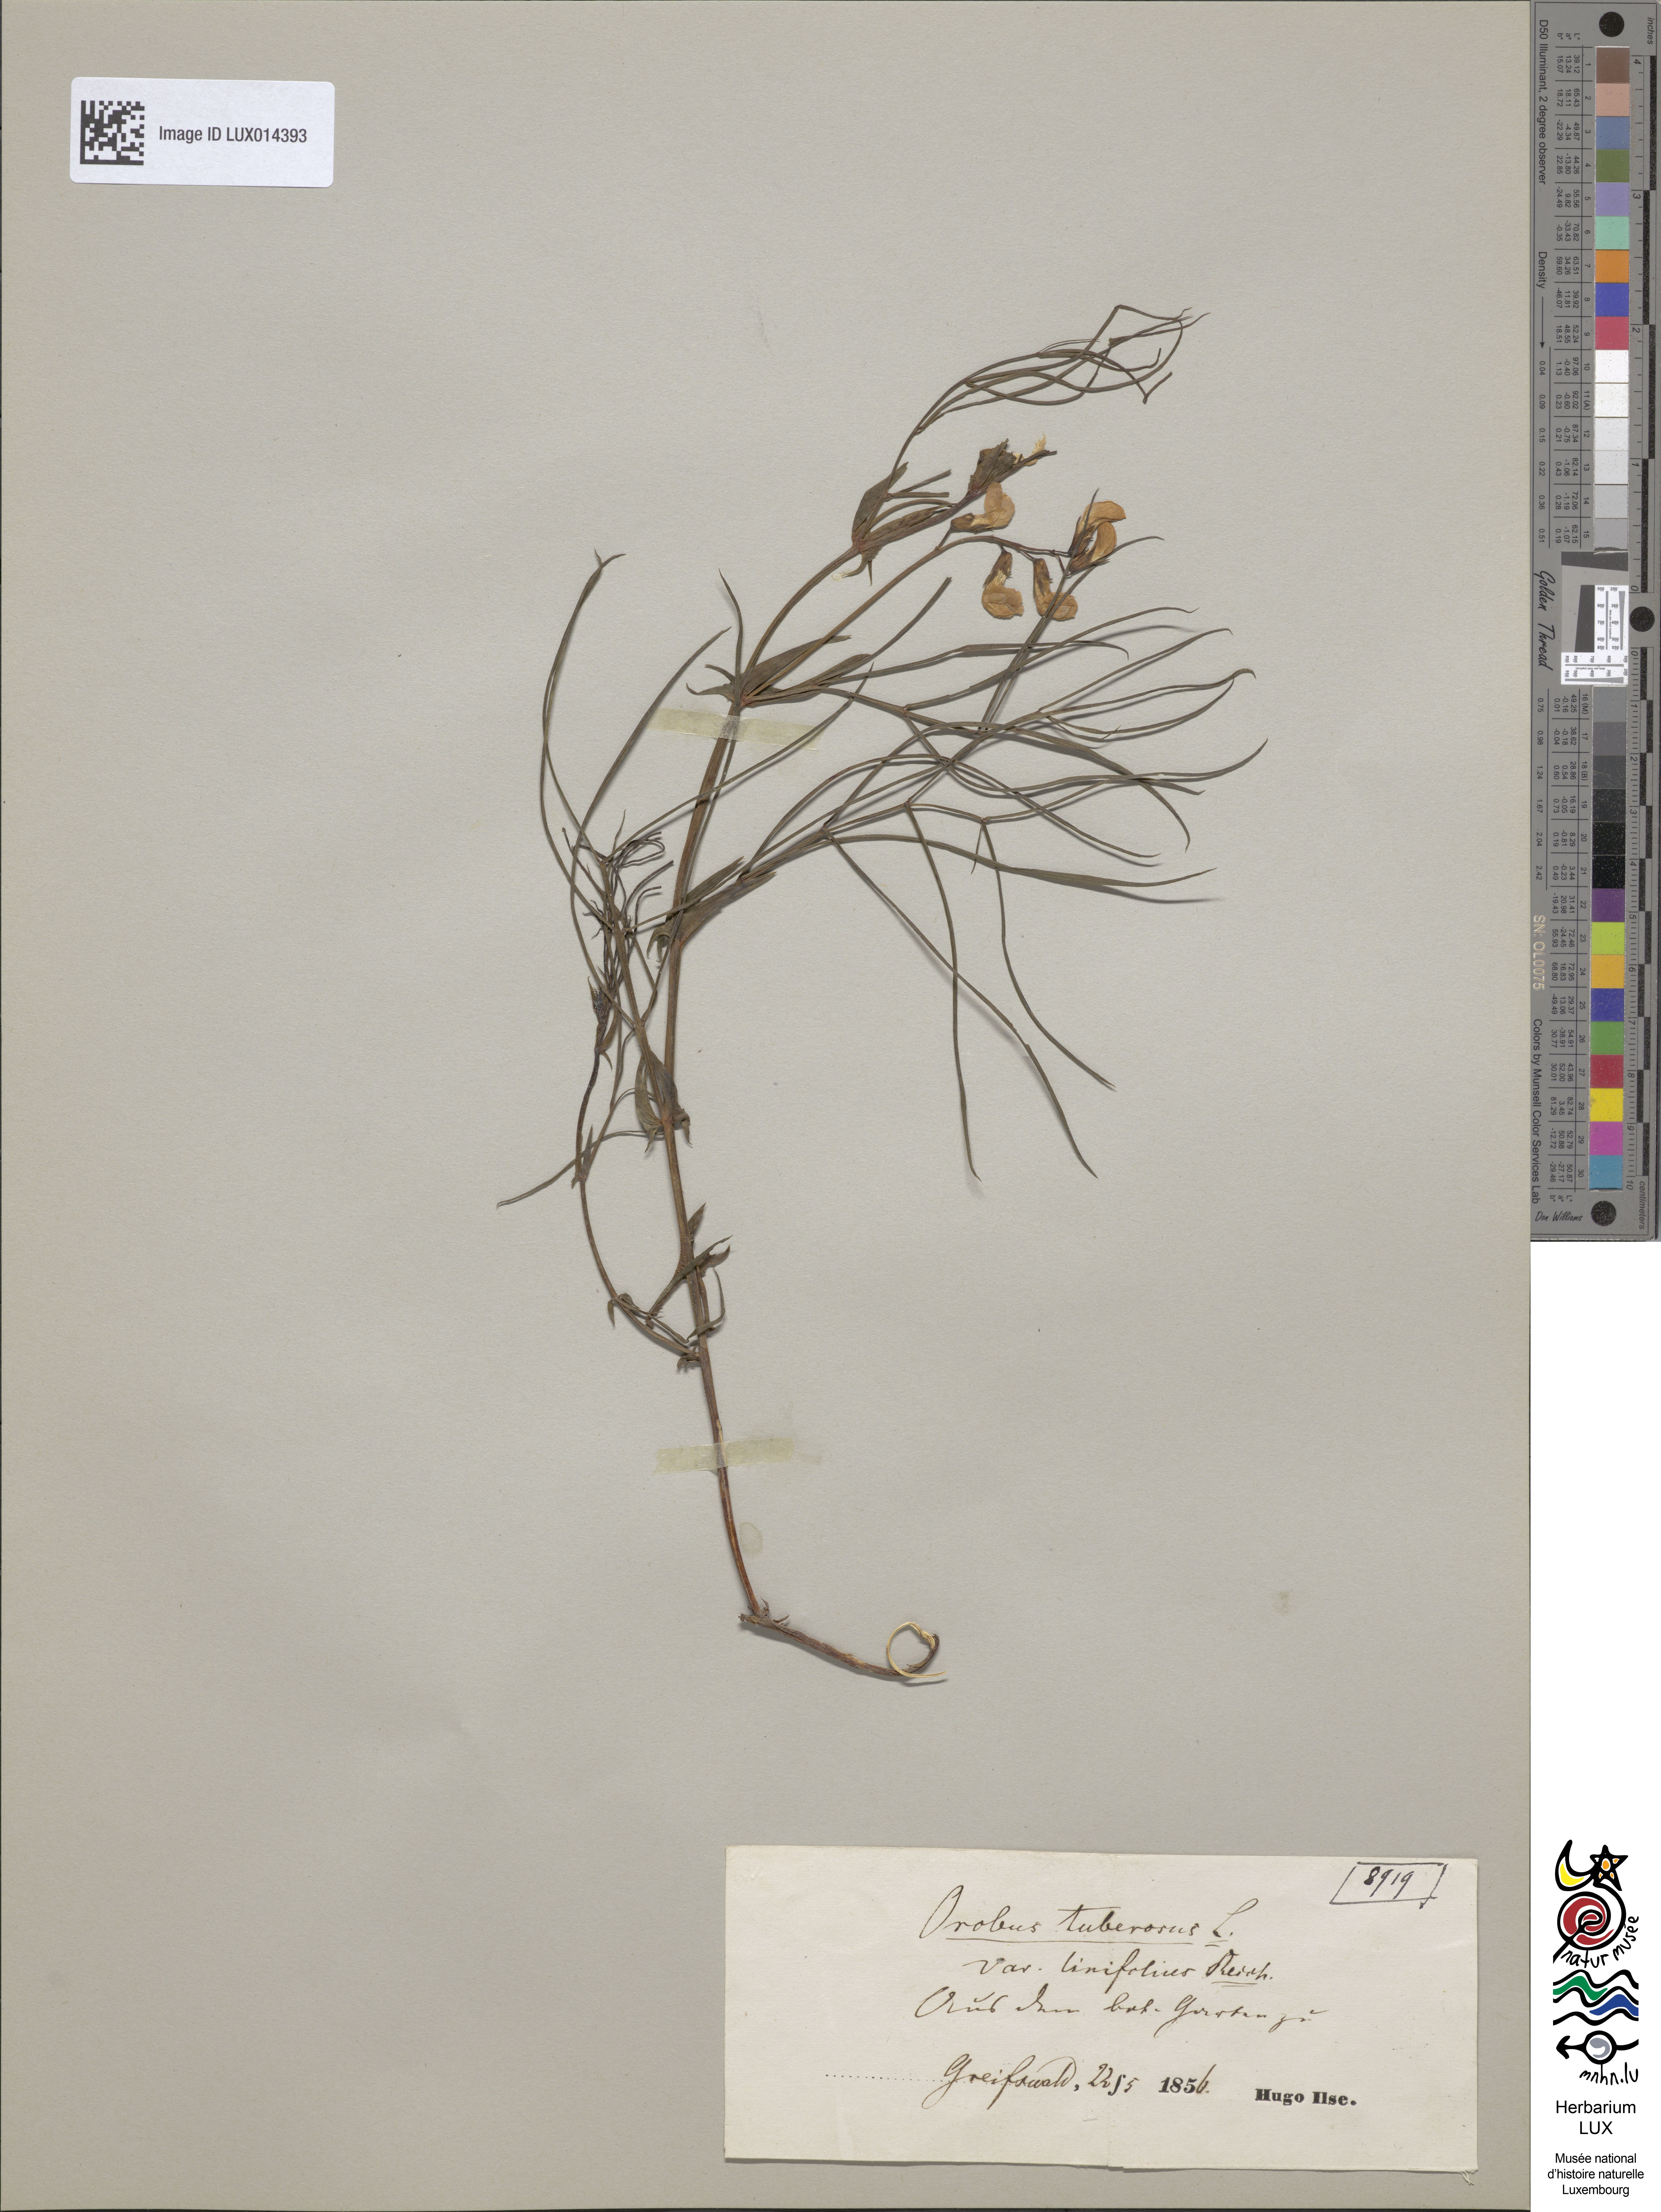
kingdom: Plantae
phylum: Tracheophyta
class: Magnoliopsida
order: Fabales
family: Fabaceae
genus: Lathyrus
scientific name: Lathyrus linifolius
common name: Bitter-vetch
